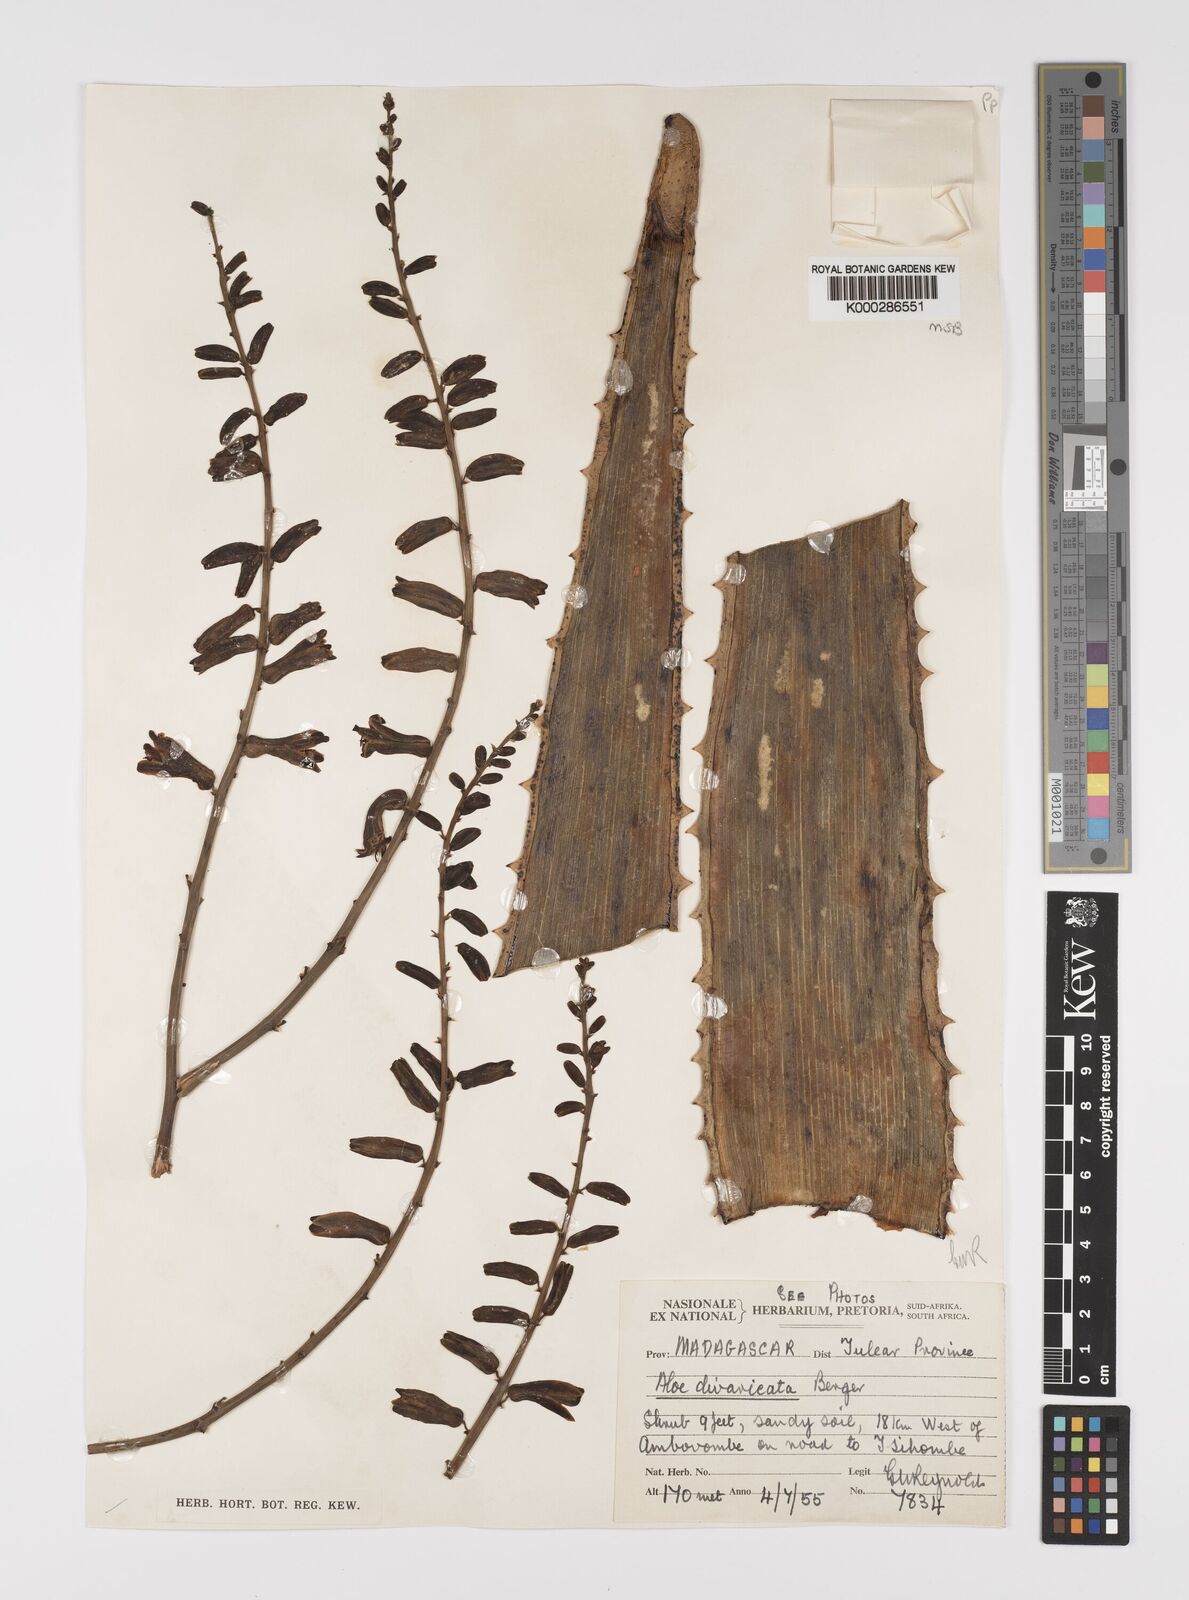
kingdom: Plantae
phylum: Tracheophyta
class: Liliopsida
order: Asparagales
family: Asphodelaceae
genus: Aloe
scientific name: Aloe divaricata
